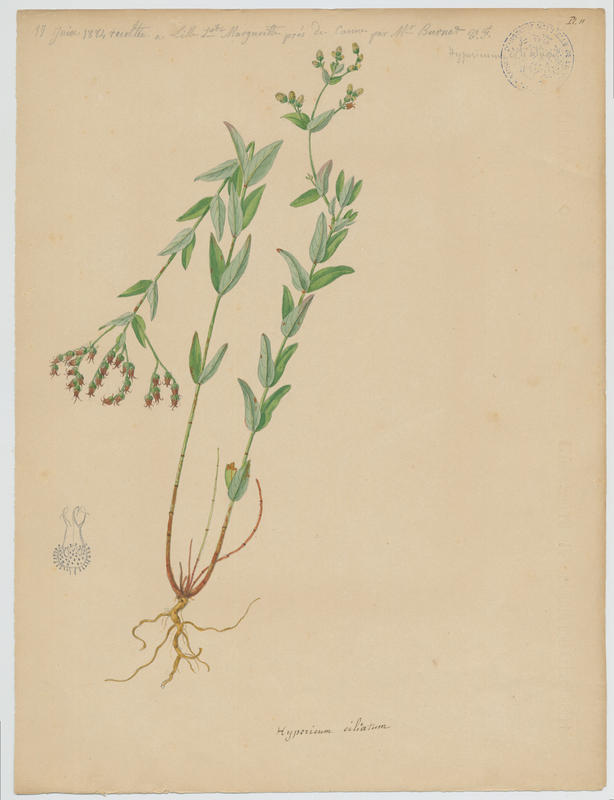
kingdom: Plantae
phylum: Tracheophyta
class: Magnoliopsida
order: Malpighiales
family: Hypericaceae
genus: Hypericum
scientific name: Hypericum perfoliatum
